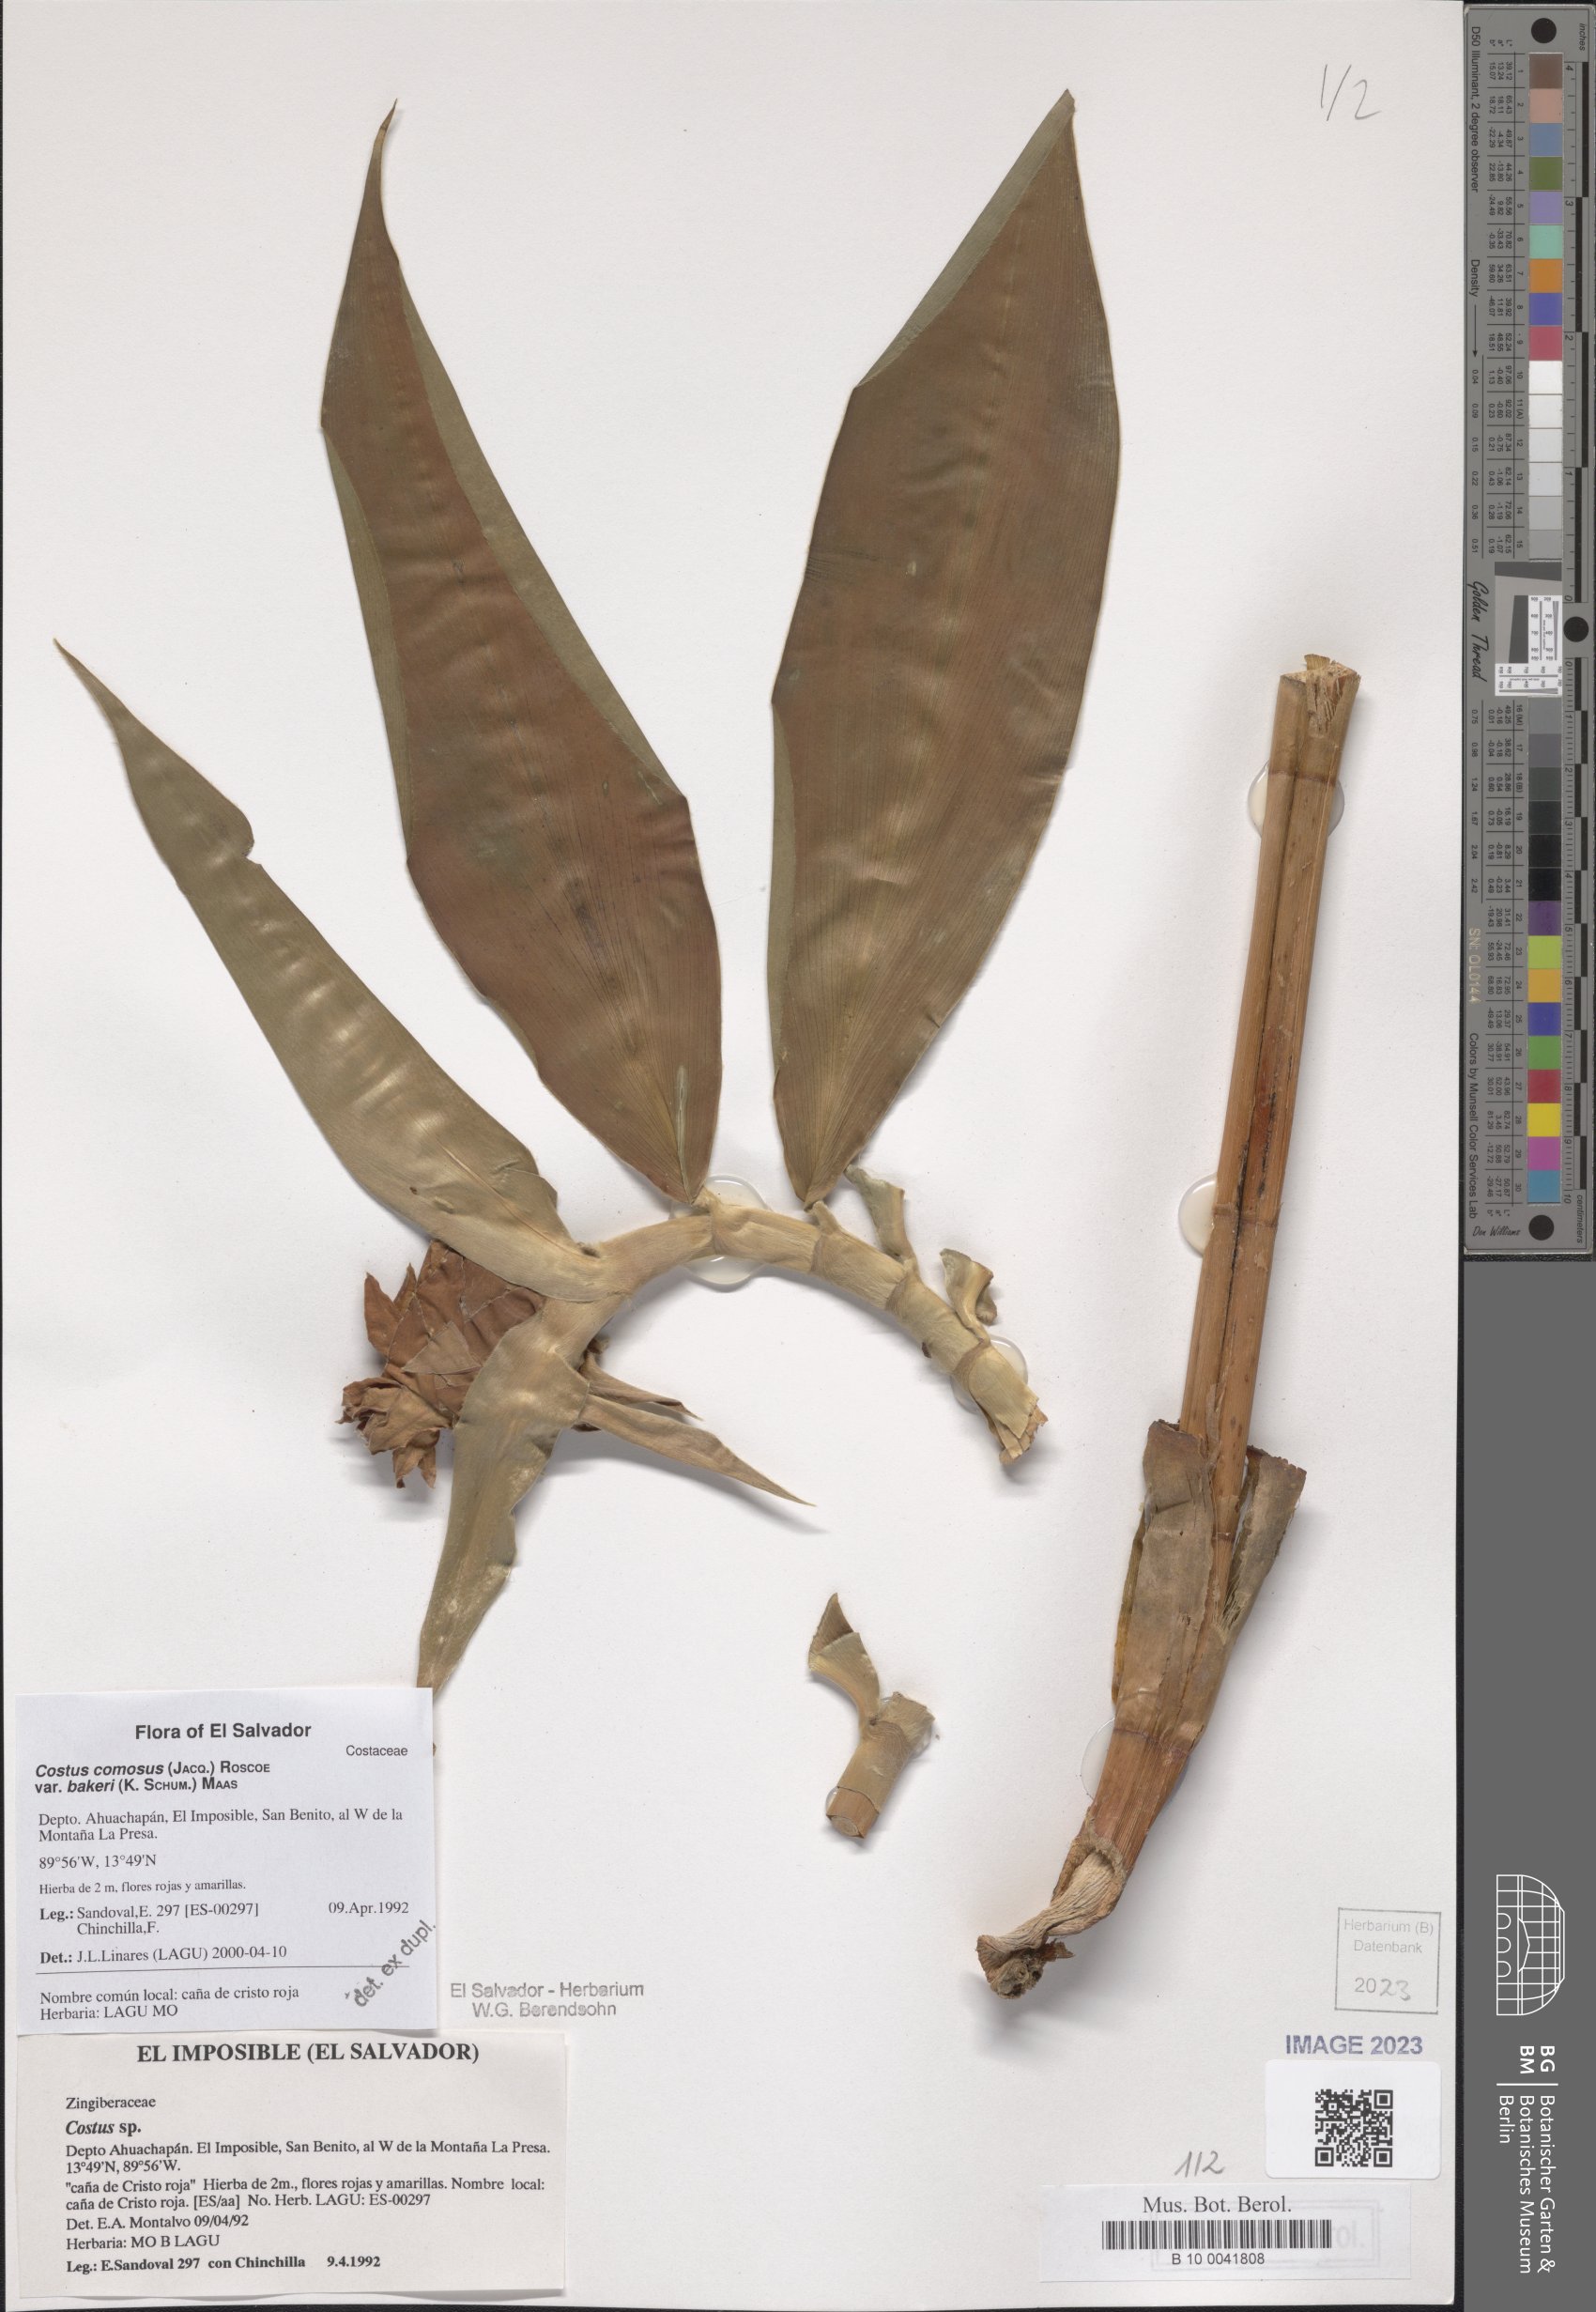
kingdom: Plantae
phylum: Tracheophyta
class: Liliopsida
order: Zingiberales
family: Costaceae
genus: Costus
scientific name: Costus comosus
